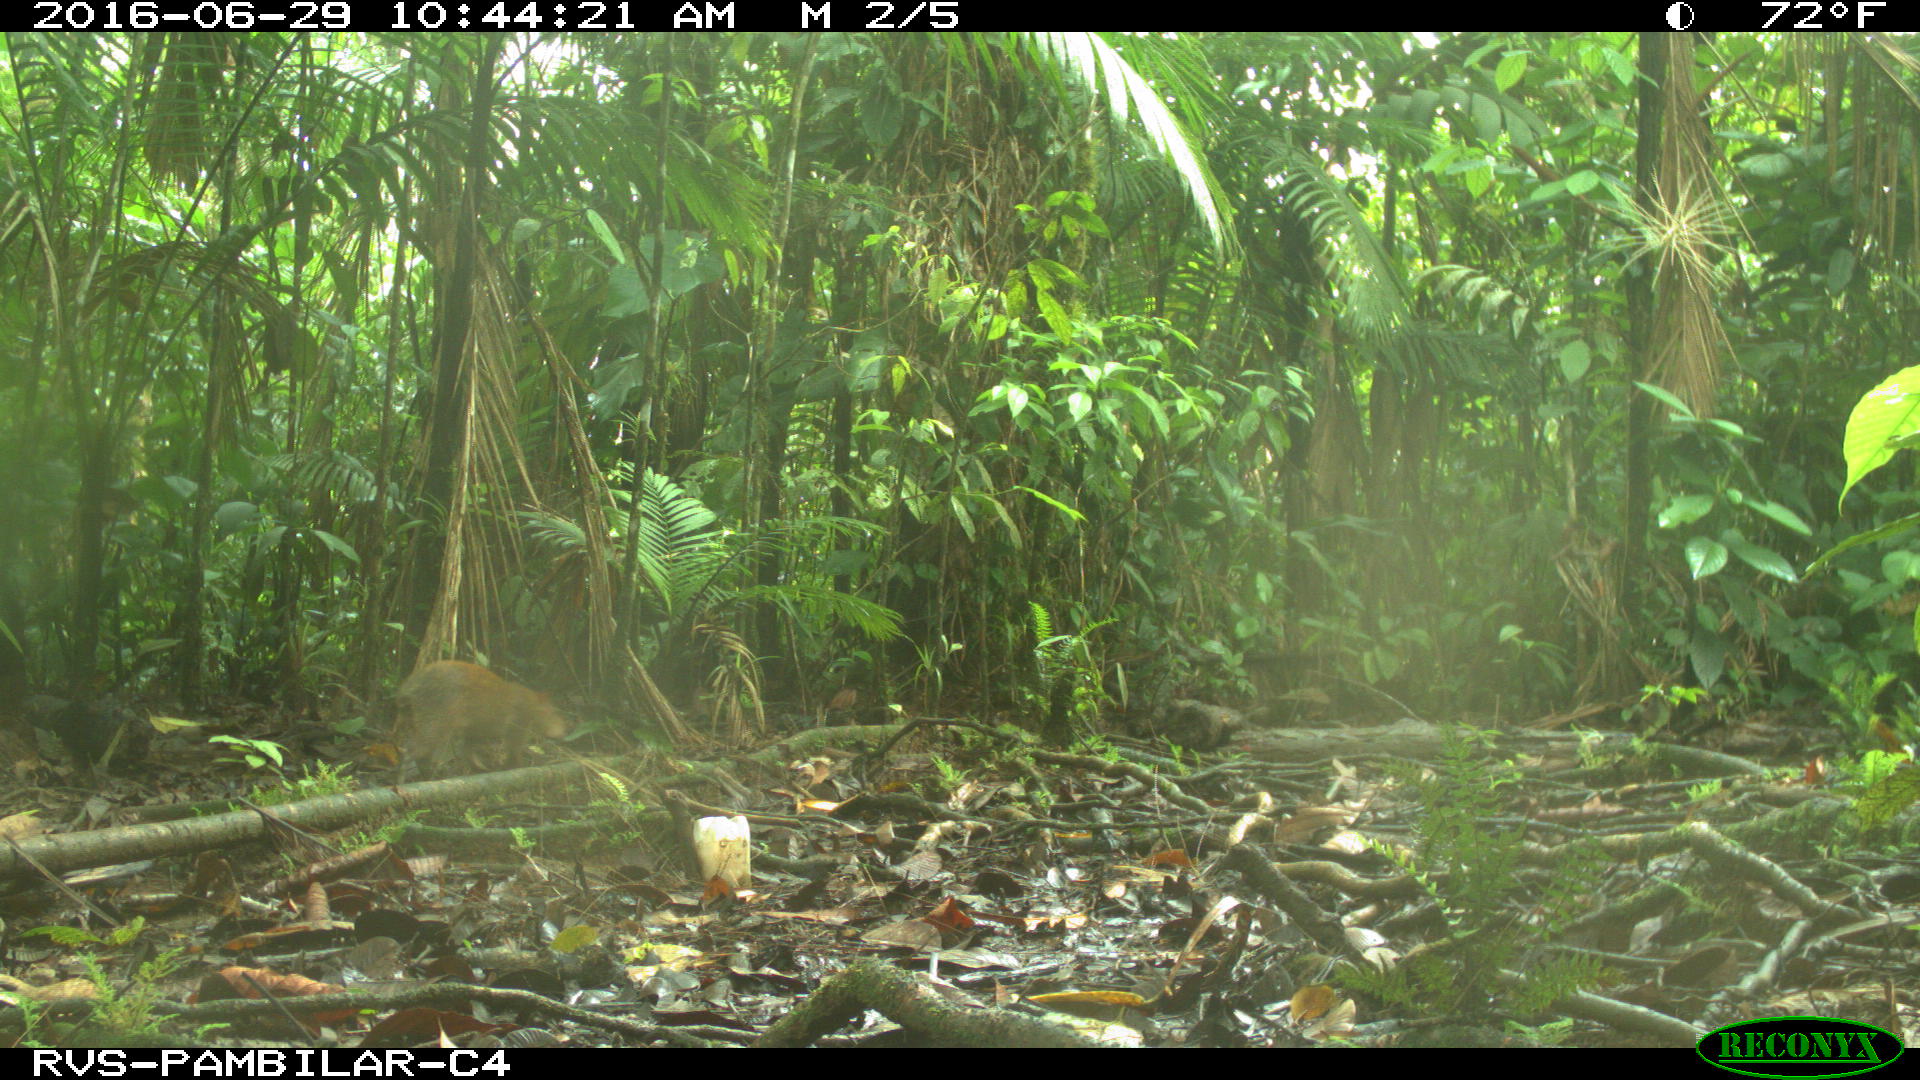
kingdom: Animalia
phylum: Chordata
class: Mammalia
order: Rodentia
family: Dasyproctidae
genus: Dasyprocta
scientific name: Dasyprocta punctata
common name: Central american agouti
